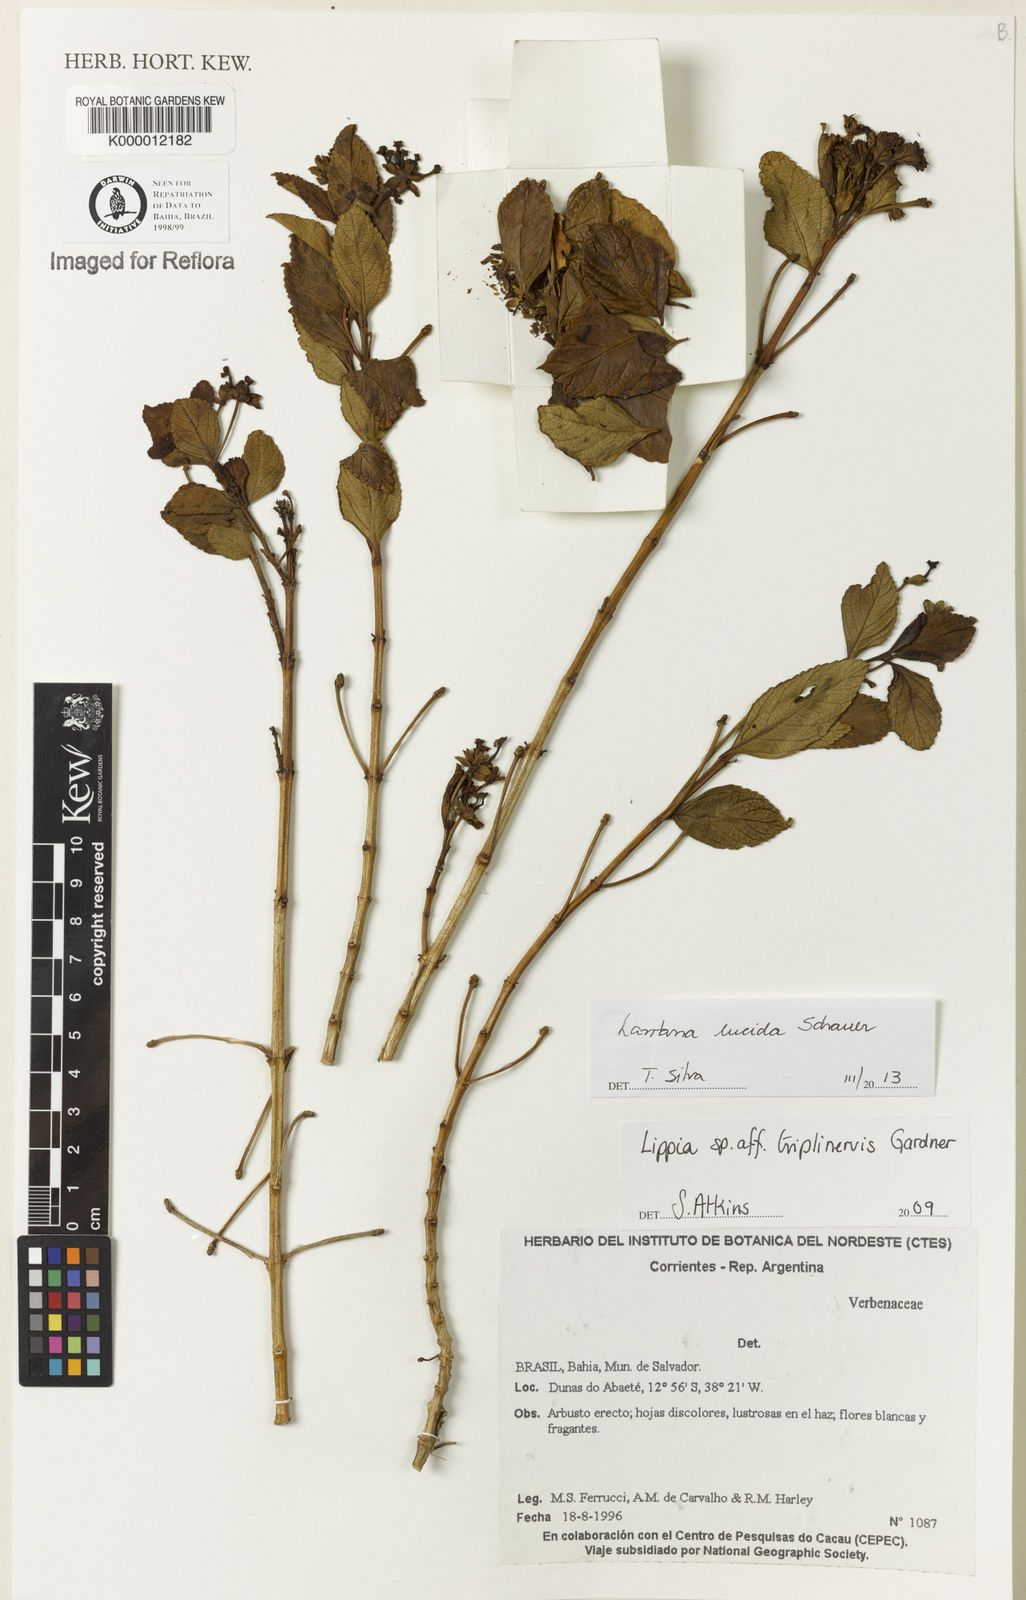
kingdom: Plantae
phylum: Tracheophyta
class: Magnoliopsida
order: Lamiales
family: Verbenaceae
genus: Lantana
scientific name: Lantana
